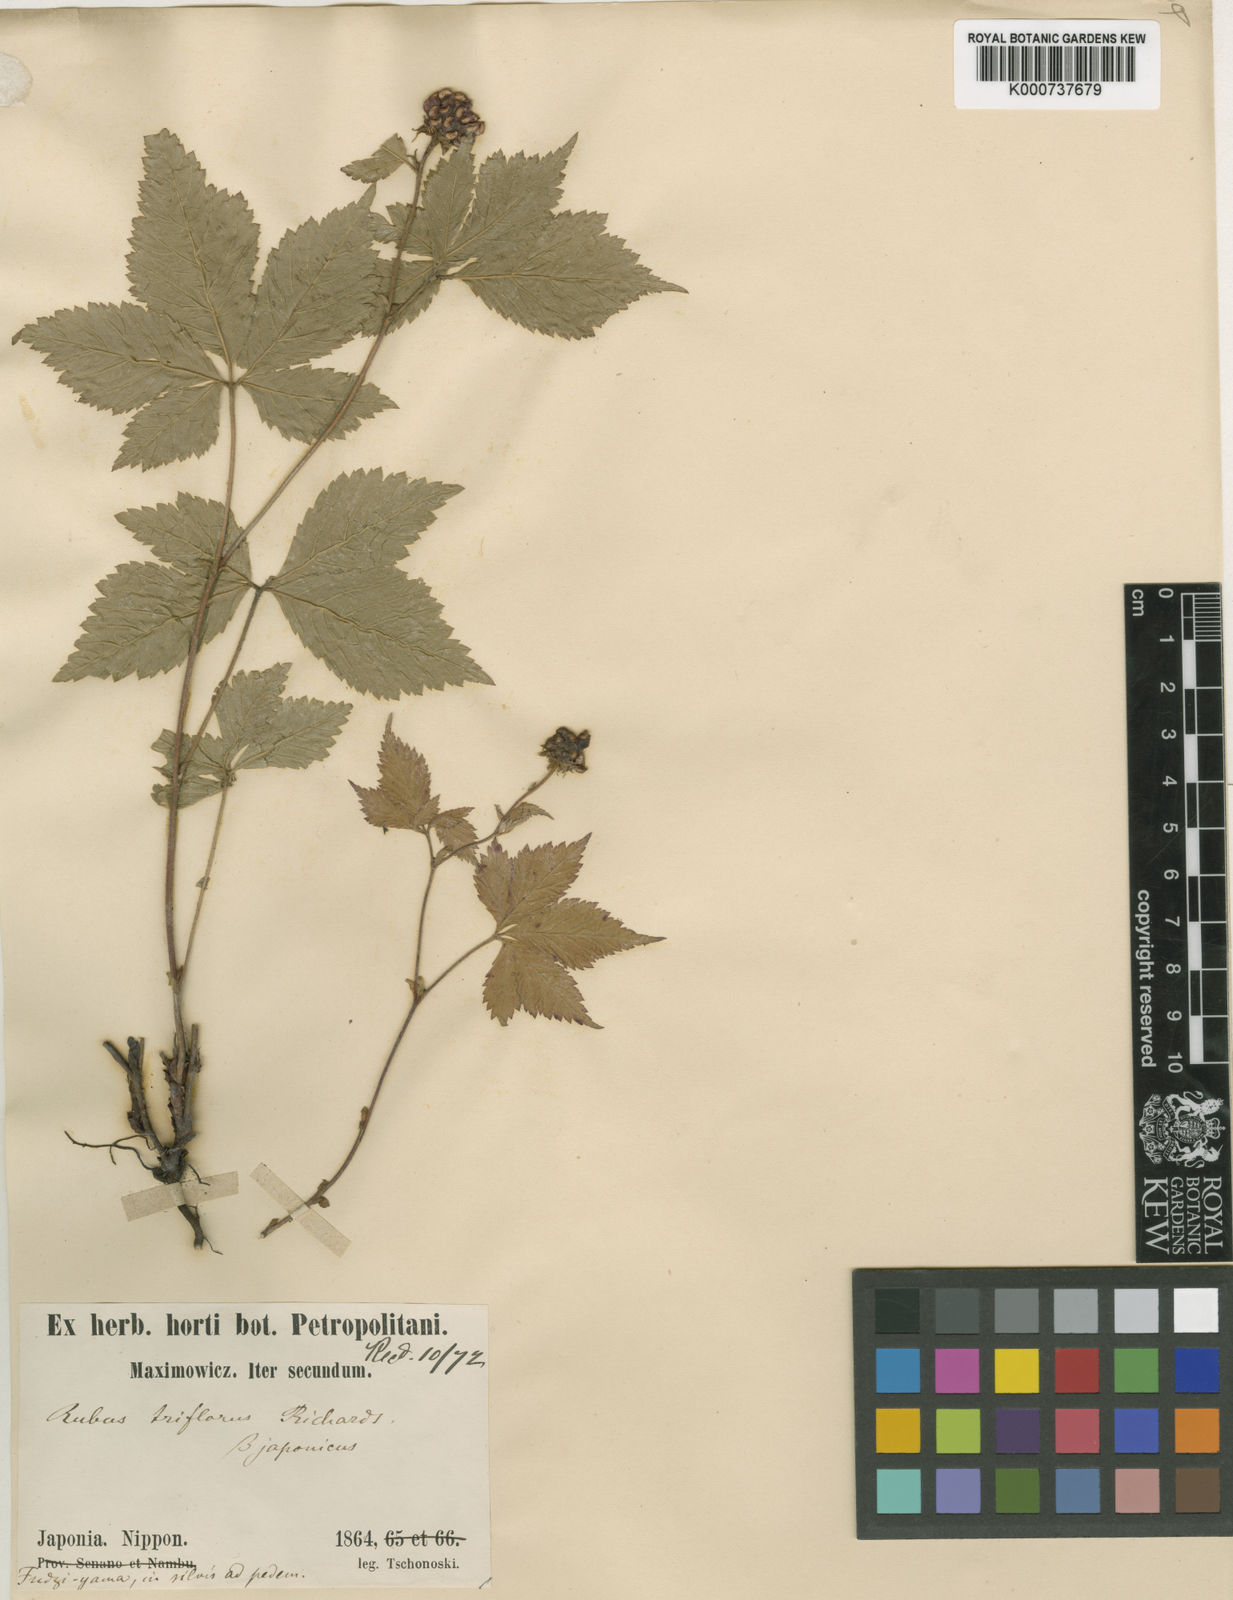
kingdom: Plantae
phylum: Tracheophyta
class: Magnoliopsida
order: Rosales
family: Rosaceae
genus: Rubus
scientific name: Rubus
